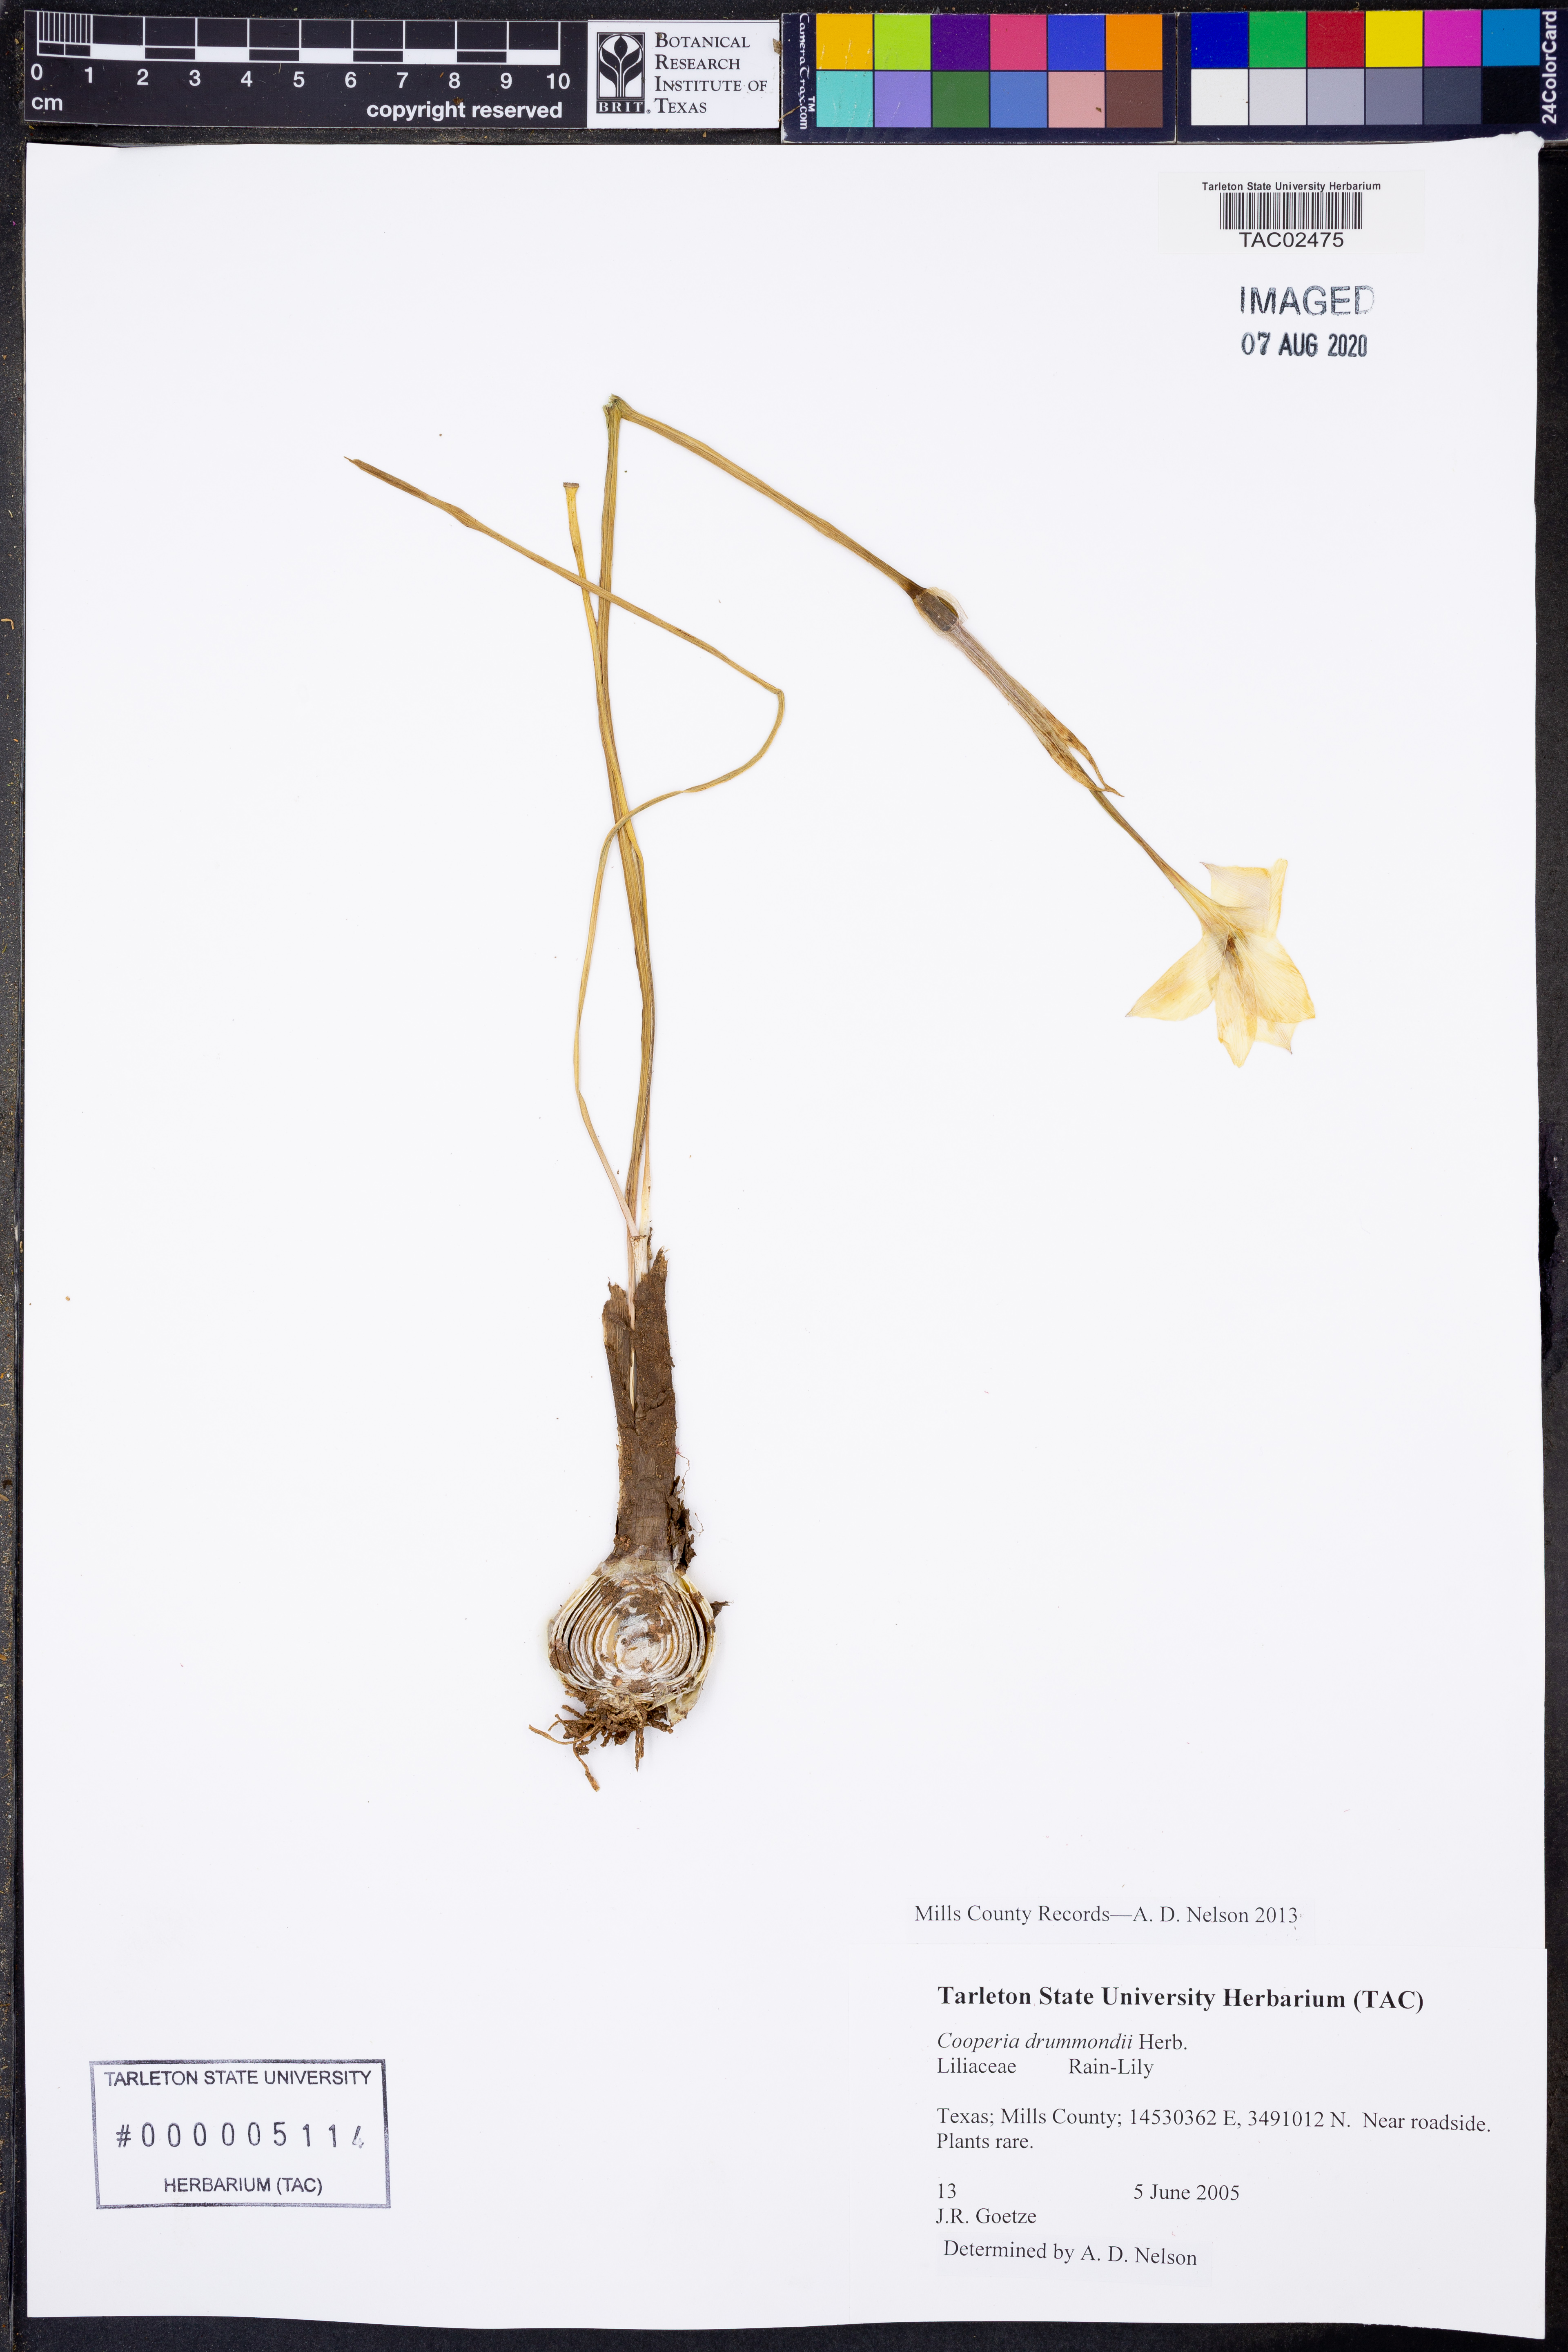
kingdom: Plantae
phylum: Tracheophyta
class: Liliopsida
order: Asparagales
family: Amaryllidaceae
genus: Zephyranthes
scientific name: Zephyranthes chlorosolen
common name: Evening rain-lily
